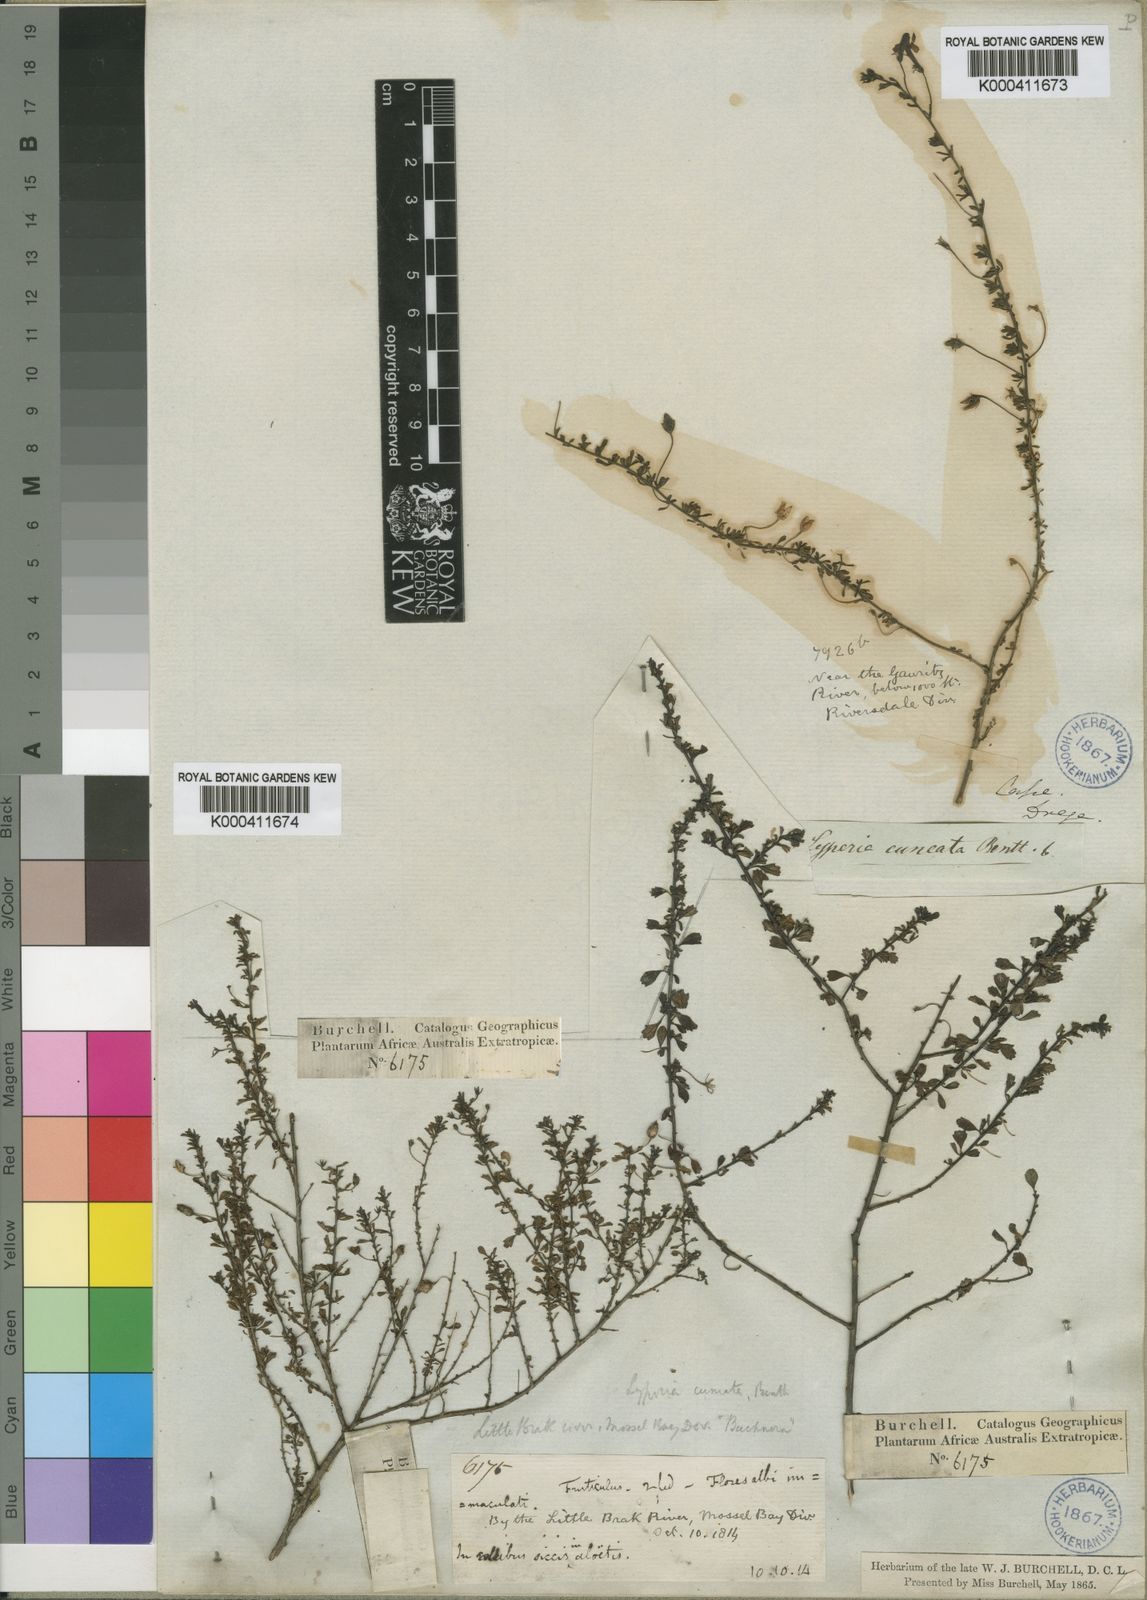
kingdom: Plantae
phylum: Tracheophyta
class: Magnoliopsida
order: Lamiales
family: Scrophulariaceae
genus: Jamesbrittenia
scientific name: Jamesbrittenia argentea
